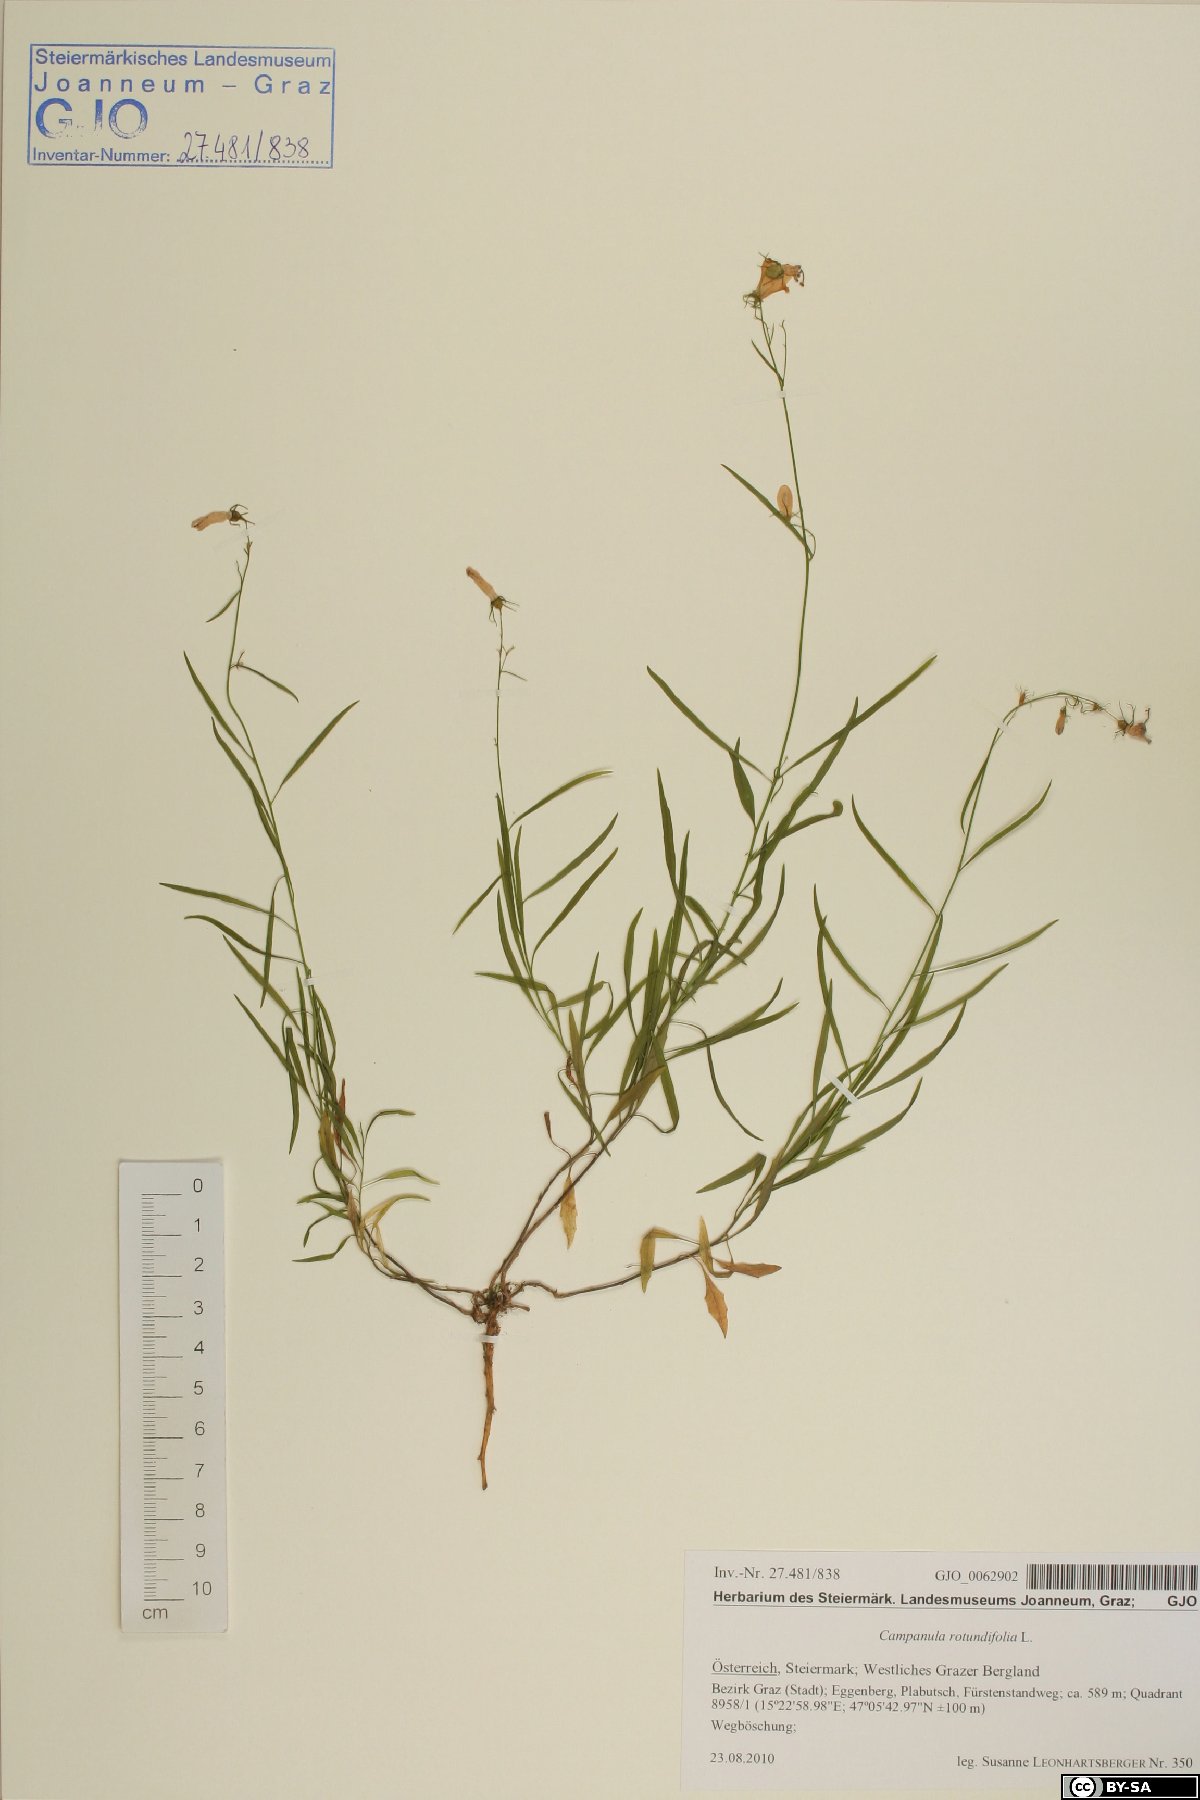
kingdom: Plantae
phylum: Tracheophyta
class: Magnoliopsida
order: Asterales
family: Campanulaceae
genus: Campanula
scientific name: Campanula rotundifolia
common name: Harebell
